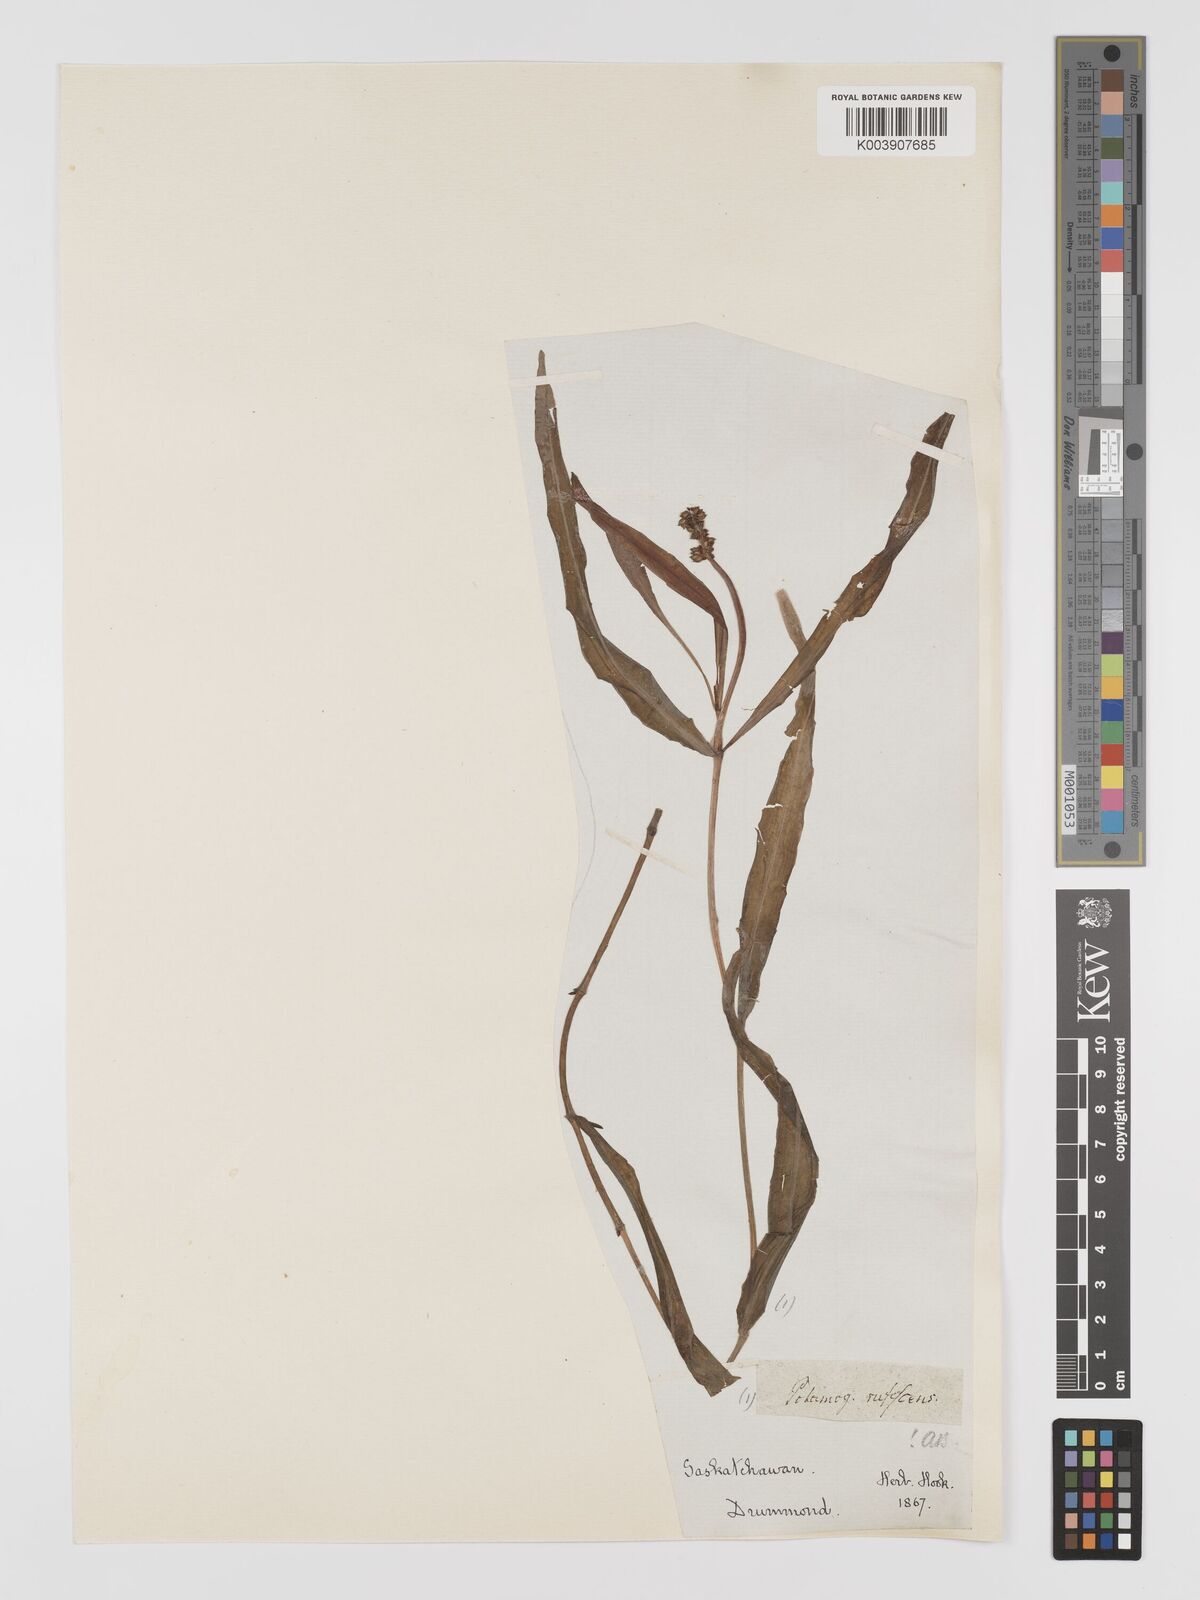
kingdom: Plantae
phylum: Tracheophyta
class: Liliopsida
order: Alismatales
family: Potamogetonaceae
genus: Potamogeton
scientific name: Potamogeton alpinus
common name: Red pondweed
